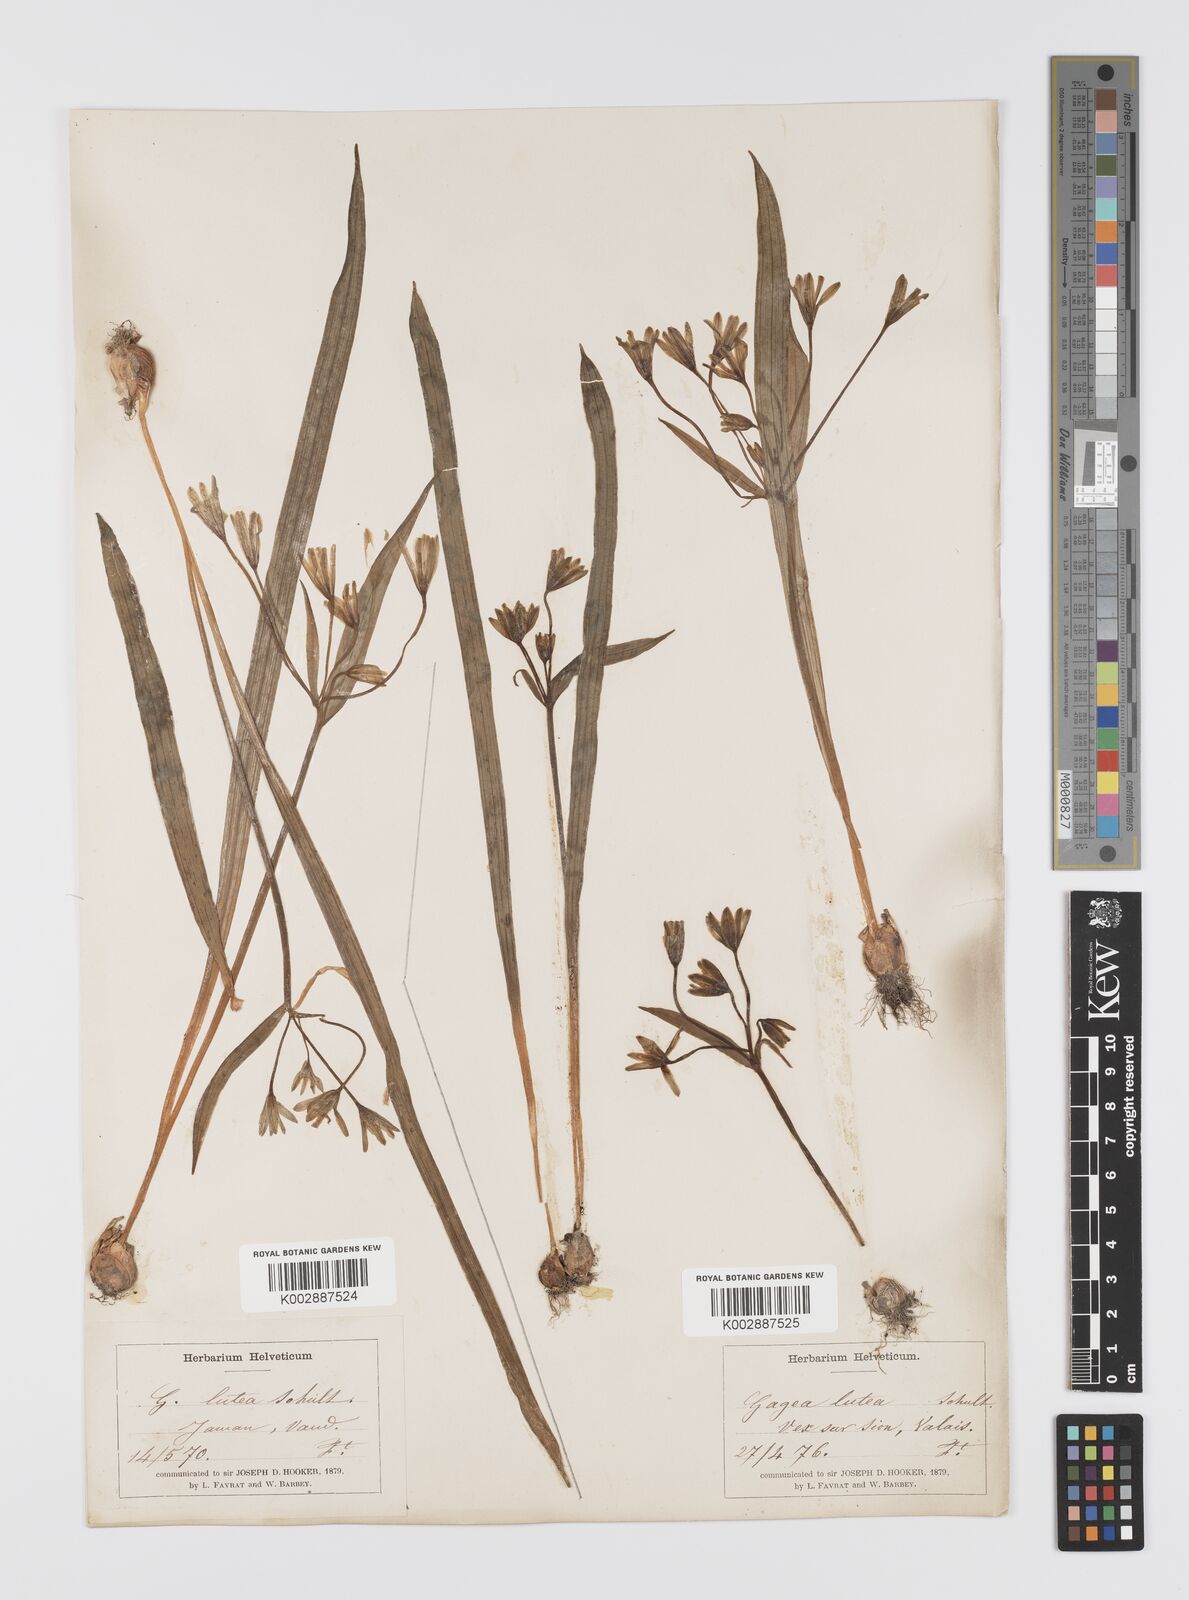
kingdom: Plantae
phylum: Tracheophyta
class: Liliopsida
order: Liliales
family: Liliaceae
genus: Gagea
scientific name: Gagea lutea
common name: Yellow star-of-bethlehem
